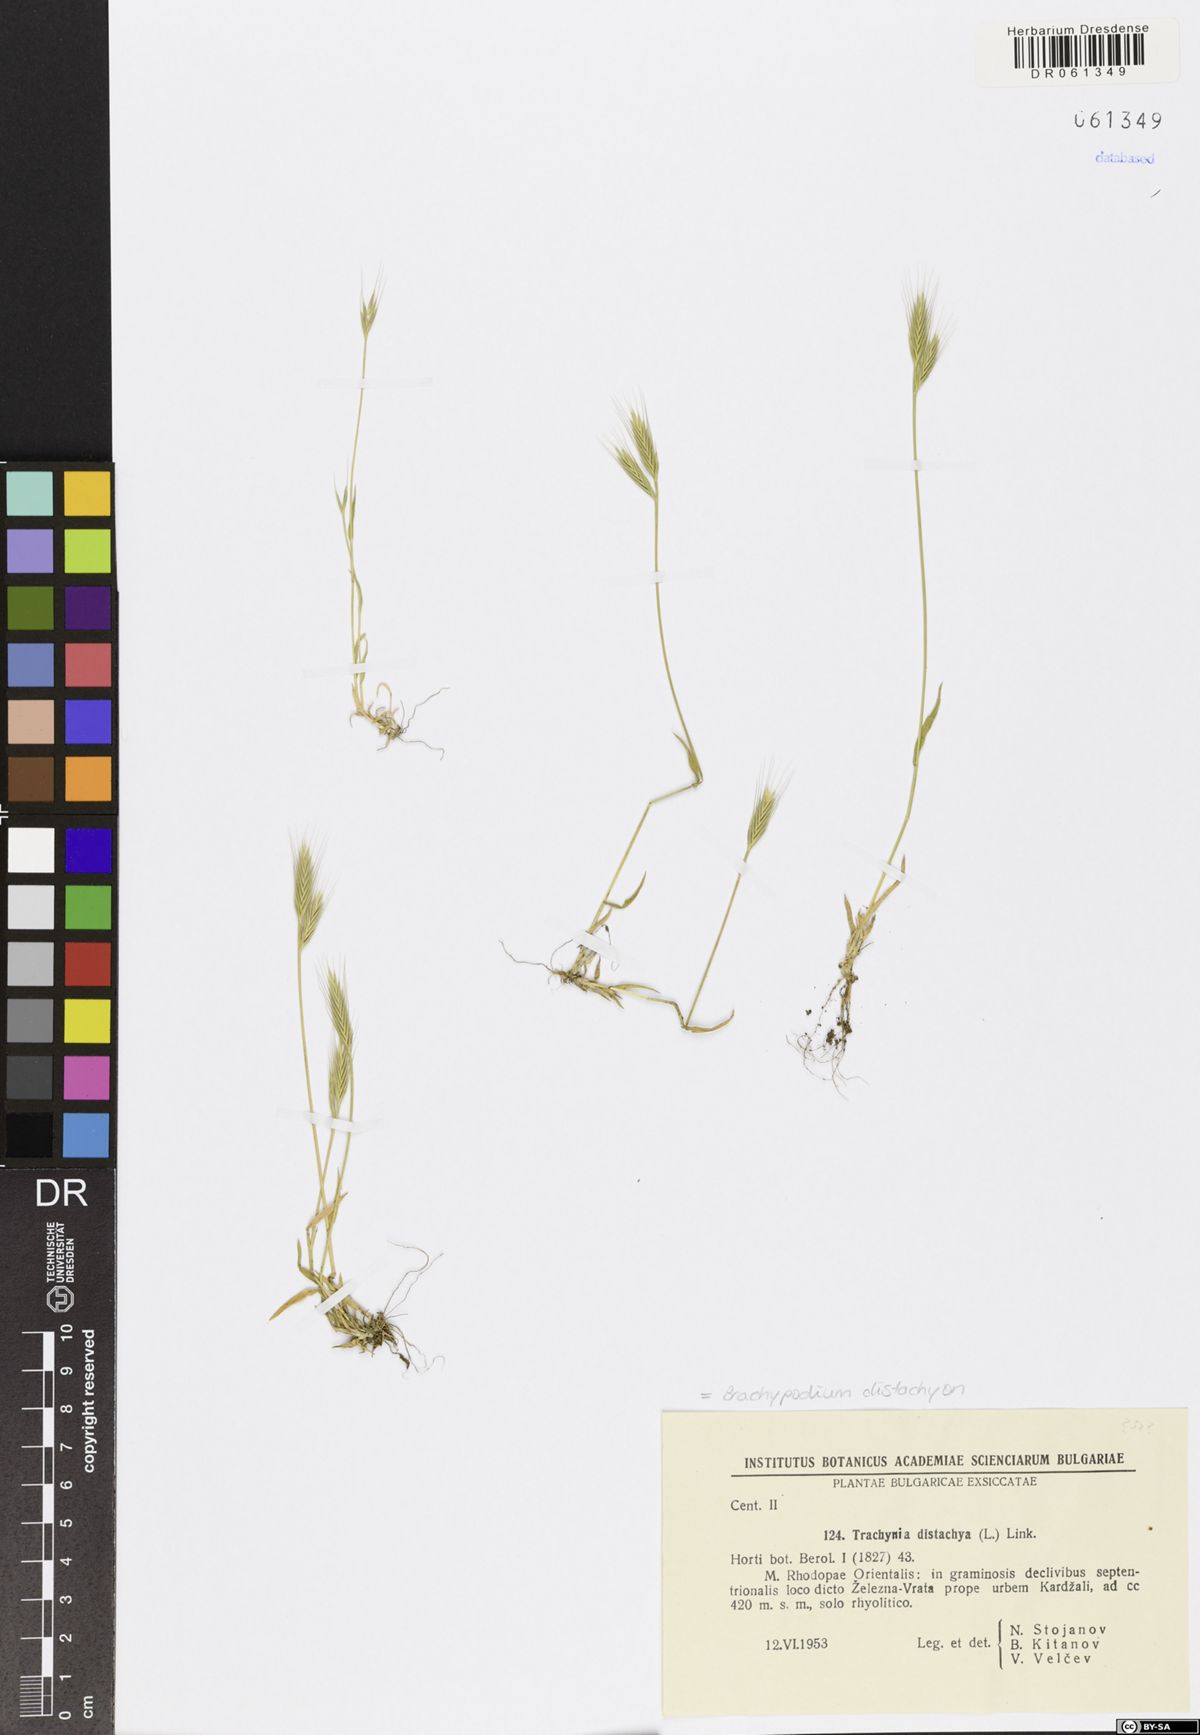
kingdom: Plantae
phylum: Tracheophyta
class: Liliopsida
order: Poales
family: Poaceae
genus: Brachypodium
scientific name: Brachypodium distachyon
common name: Stiff brome
